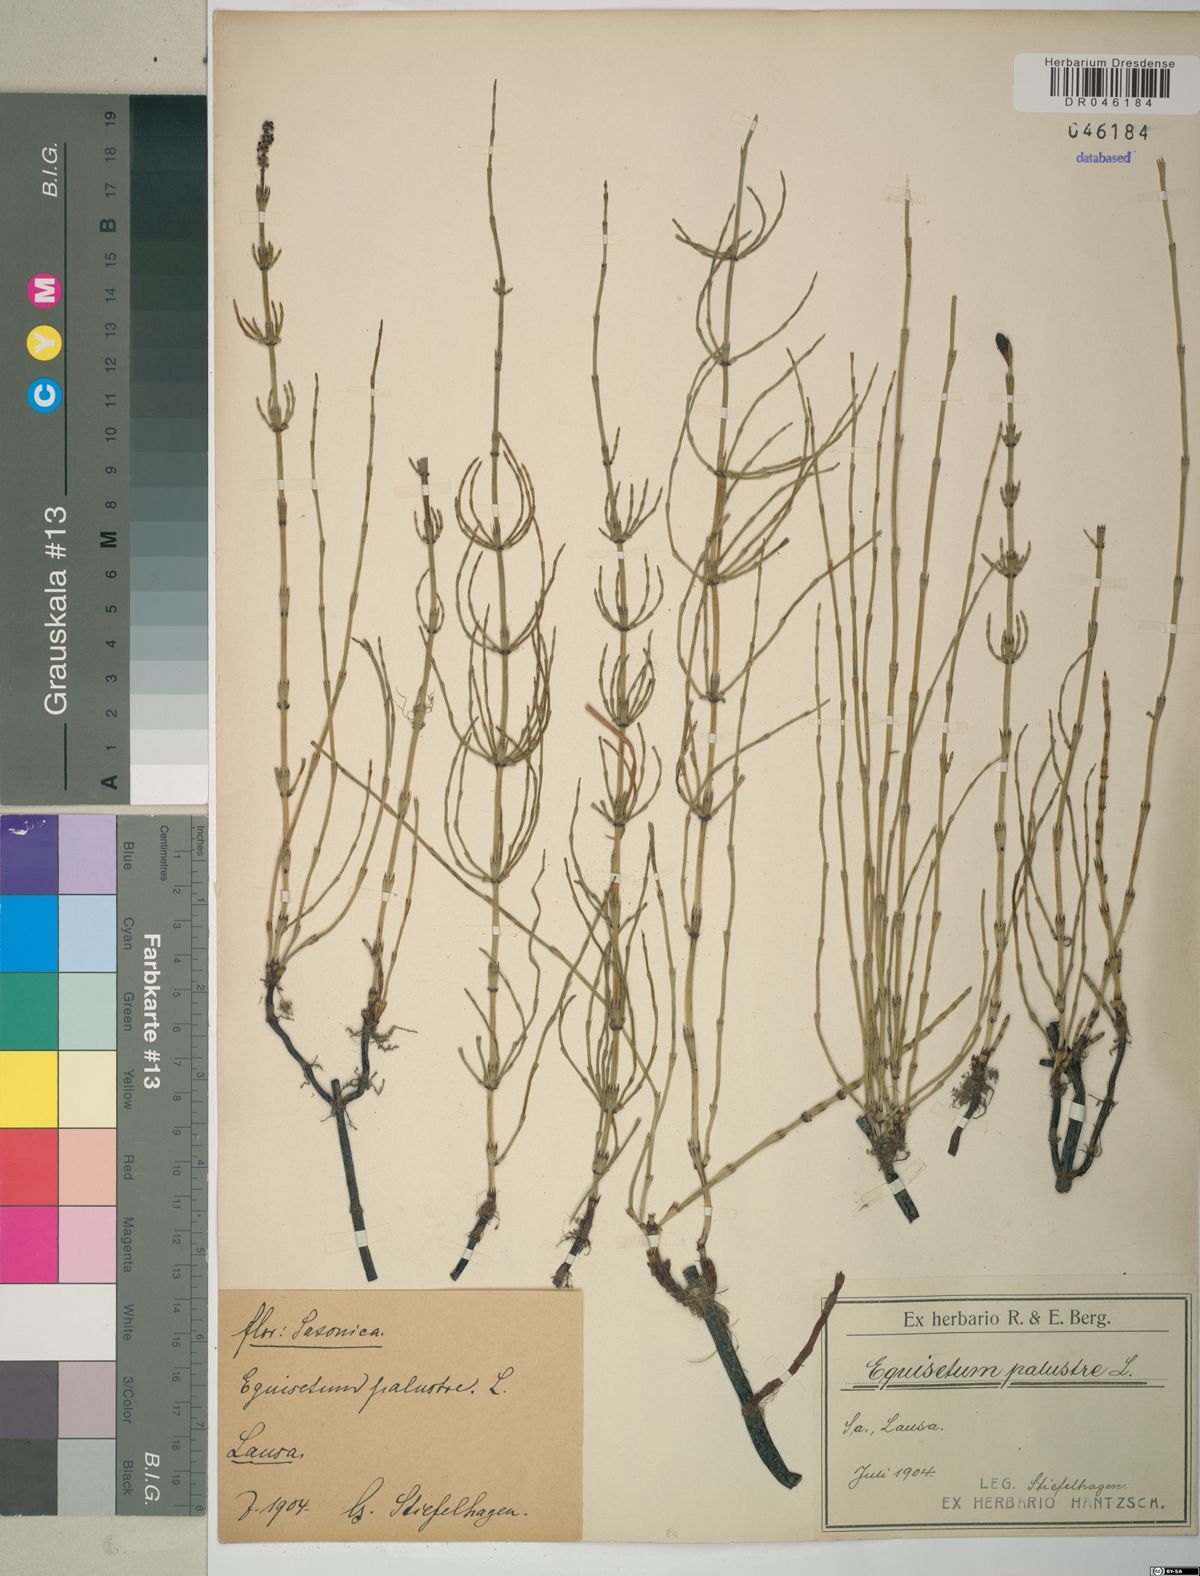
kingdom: Plantae
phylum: Tracheophyta
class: Polypodiopsida
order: Equisetales
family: Equisetaceae
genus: Equisetum
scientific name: Equisetum palustre
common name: Marsh horsetail
